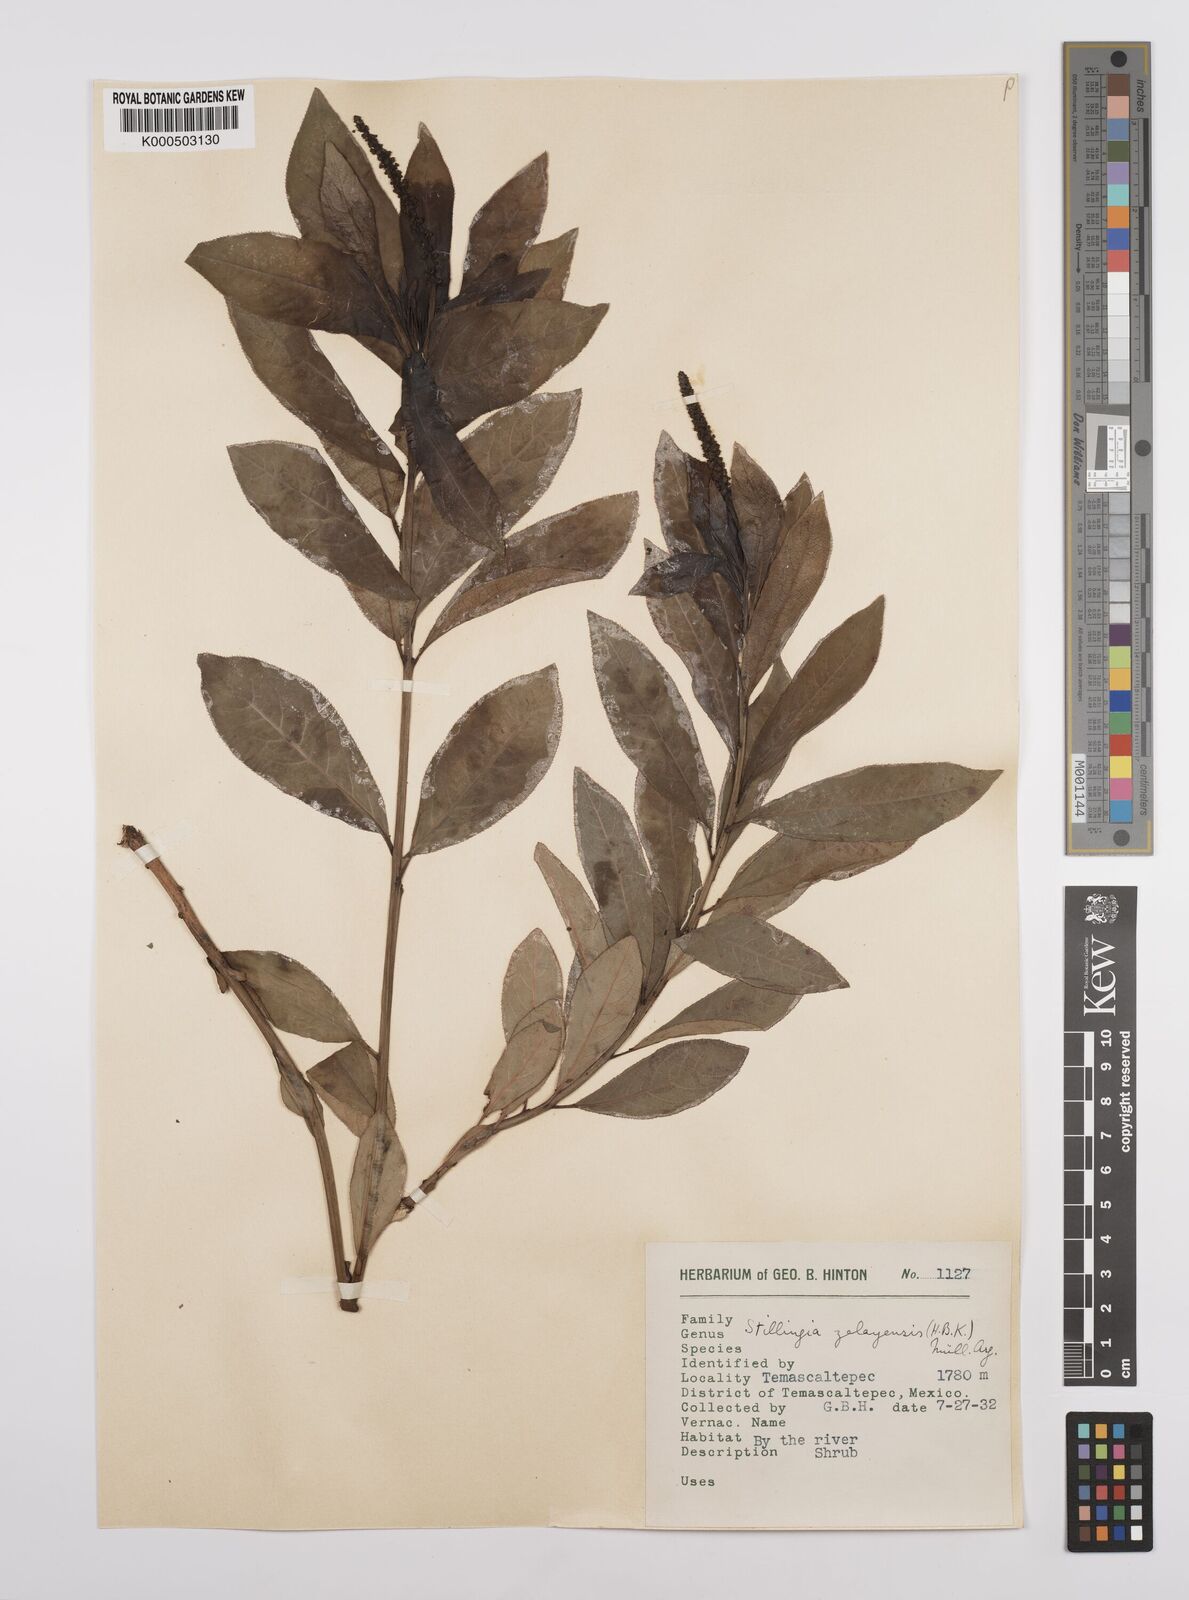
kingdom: Plantae
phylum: Tracheophyta
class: Magnoliopsida
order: Malpighiales
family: Euphorbiaceae
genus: Stillingia
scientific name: Stillingia
